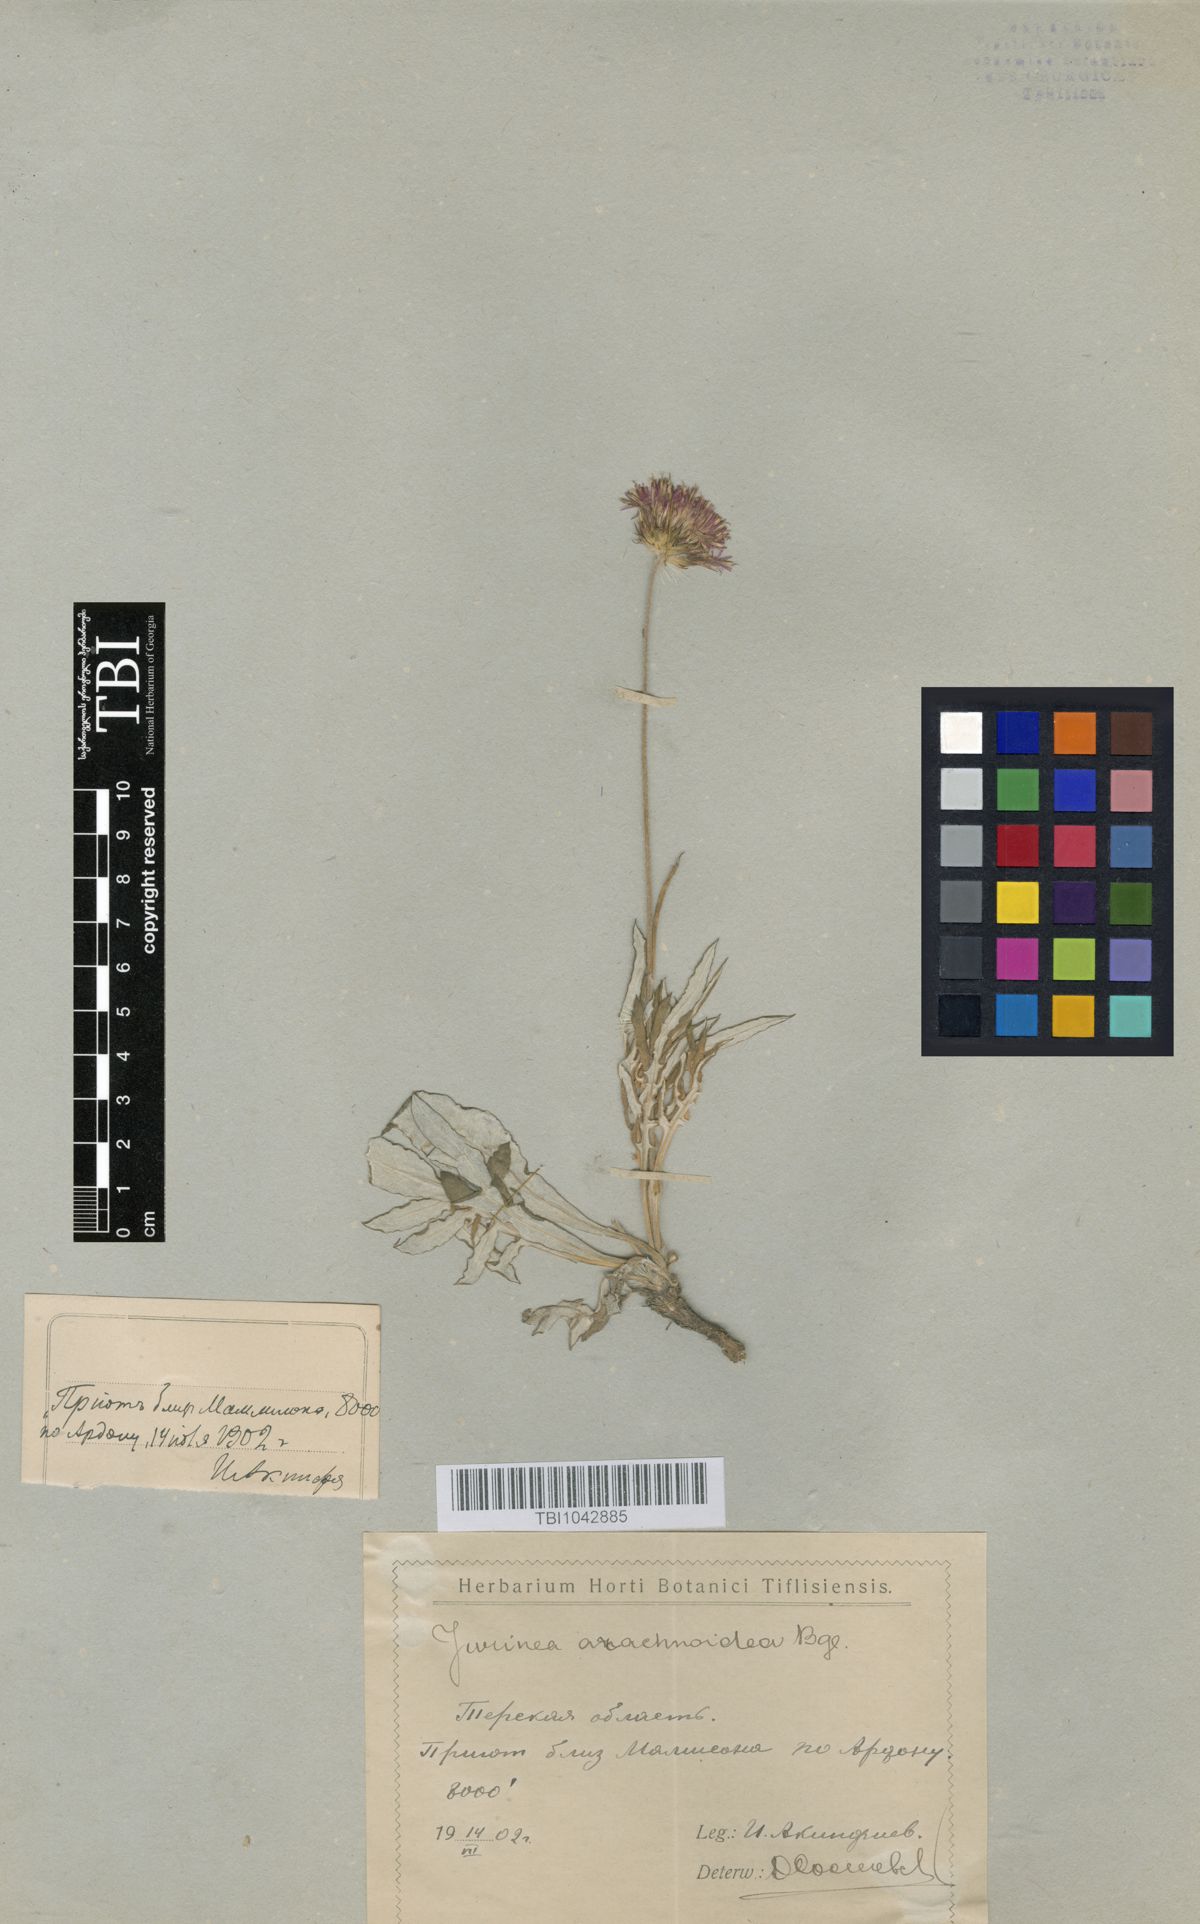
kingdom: Plantae
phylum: Tracheophyta
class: Magnoliopsida
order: Asterales
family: Asteraceae
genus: Jurinea
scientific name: Jurinea blanda
